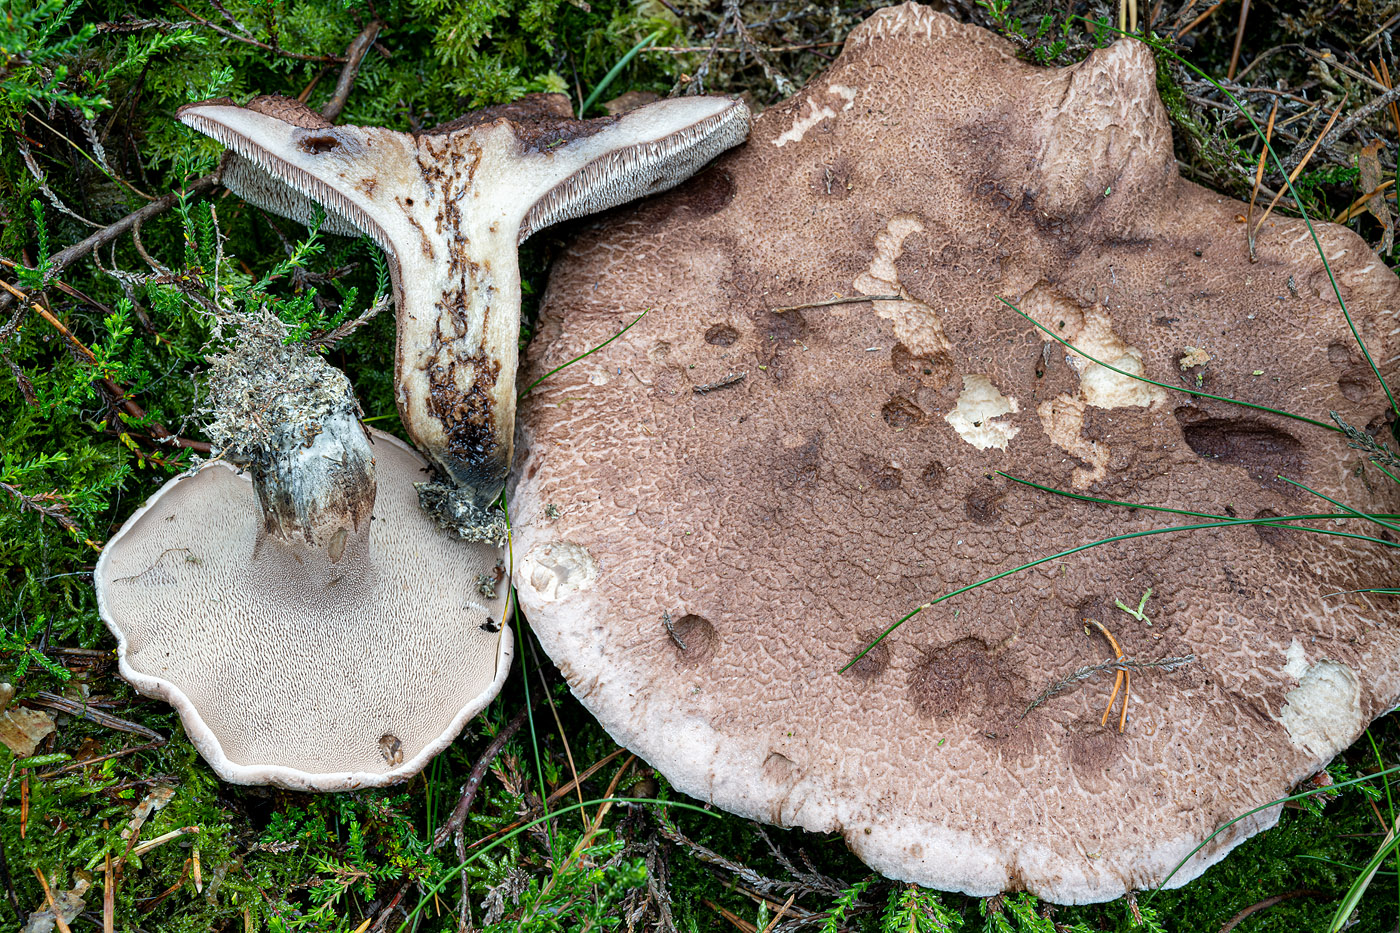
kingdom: Fungi
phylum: Basidiomycota
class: Agaricomycetes
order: Thelephorales
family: Bankeraceae
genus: Hydnellum
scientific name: Hydnellum scabrosum
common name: blåfodet korkpigsvamp
